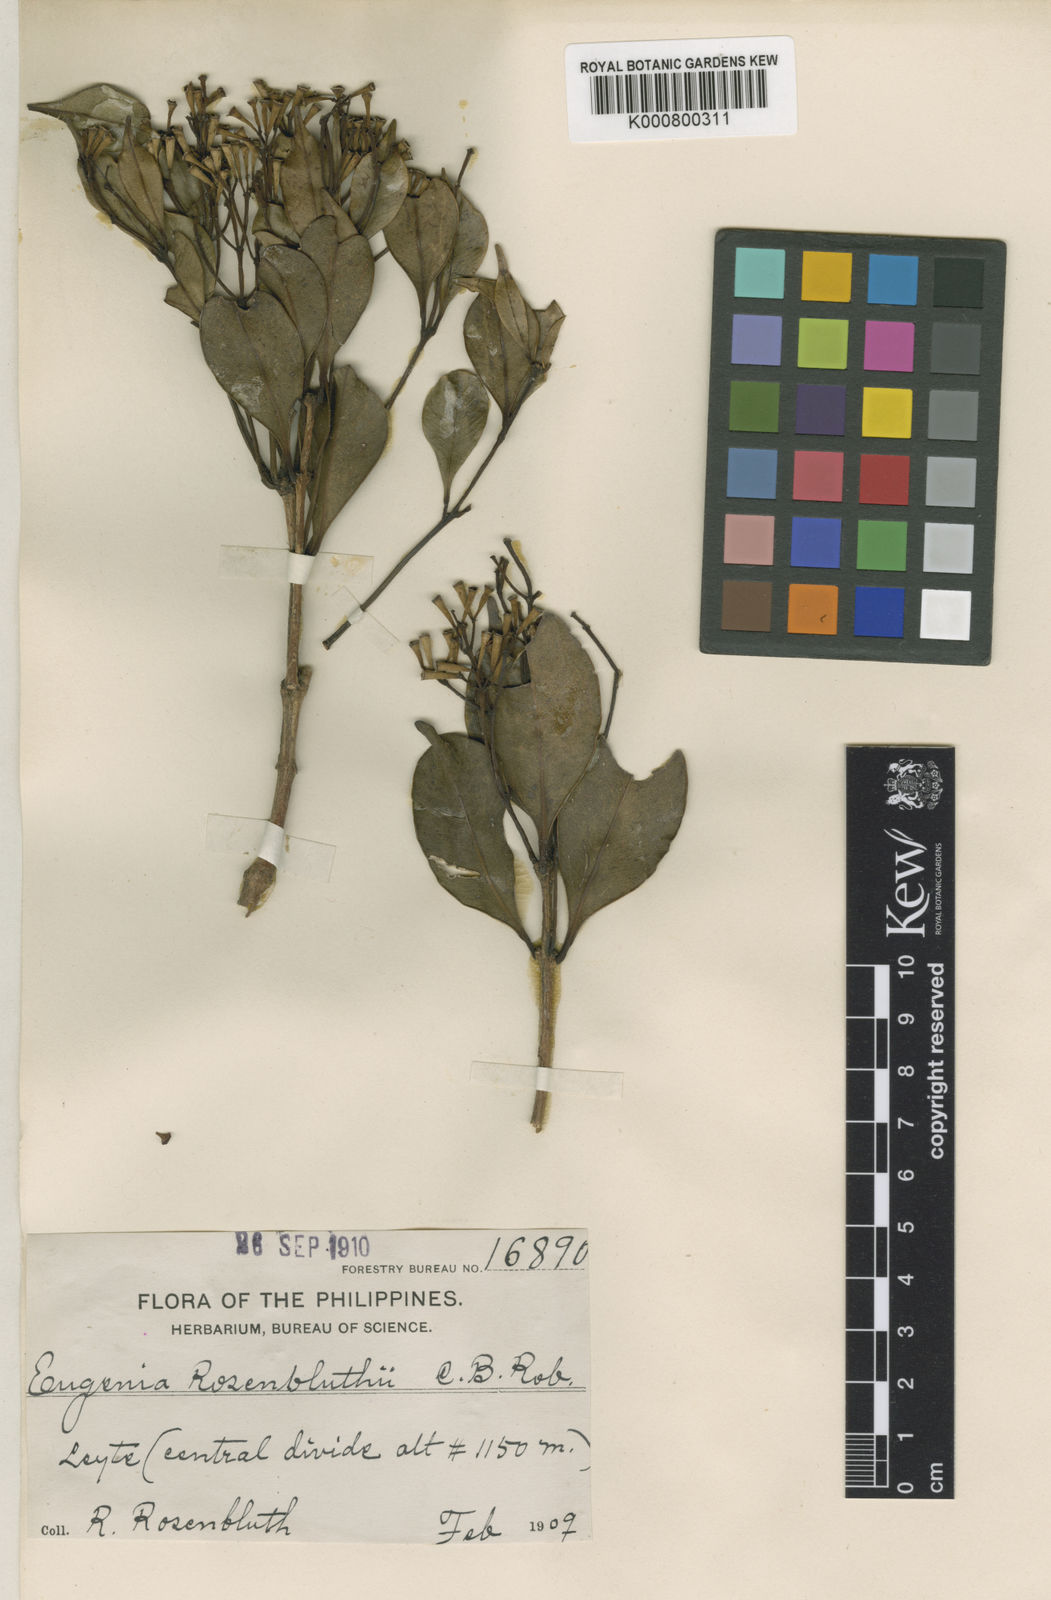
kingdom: Plantae
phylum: Tracheophyta
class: Magnoliopsida
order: Myrtales
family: Myrtaceae
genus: Syzygium
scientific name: Syzygium rosenbluthii
